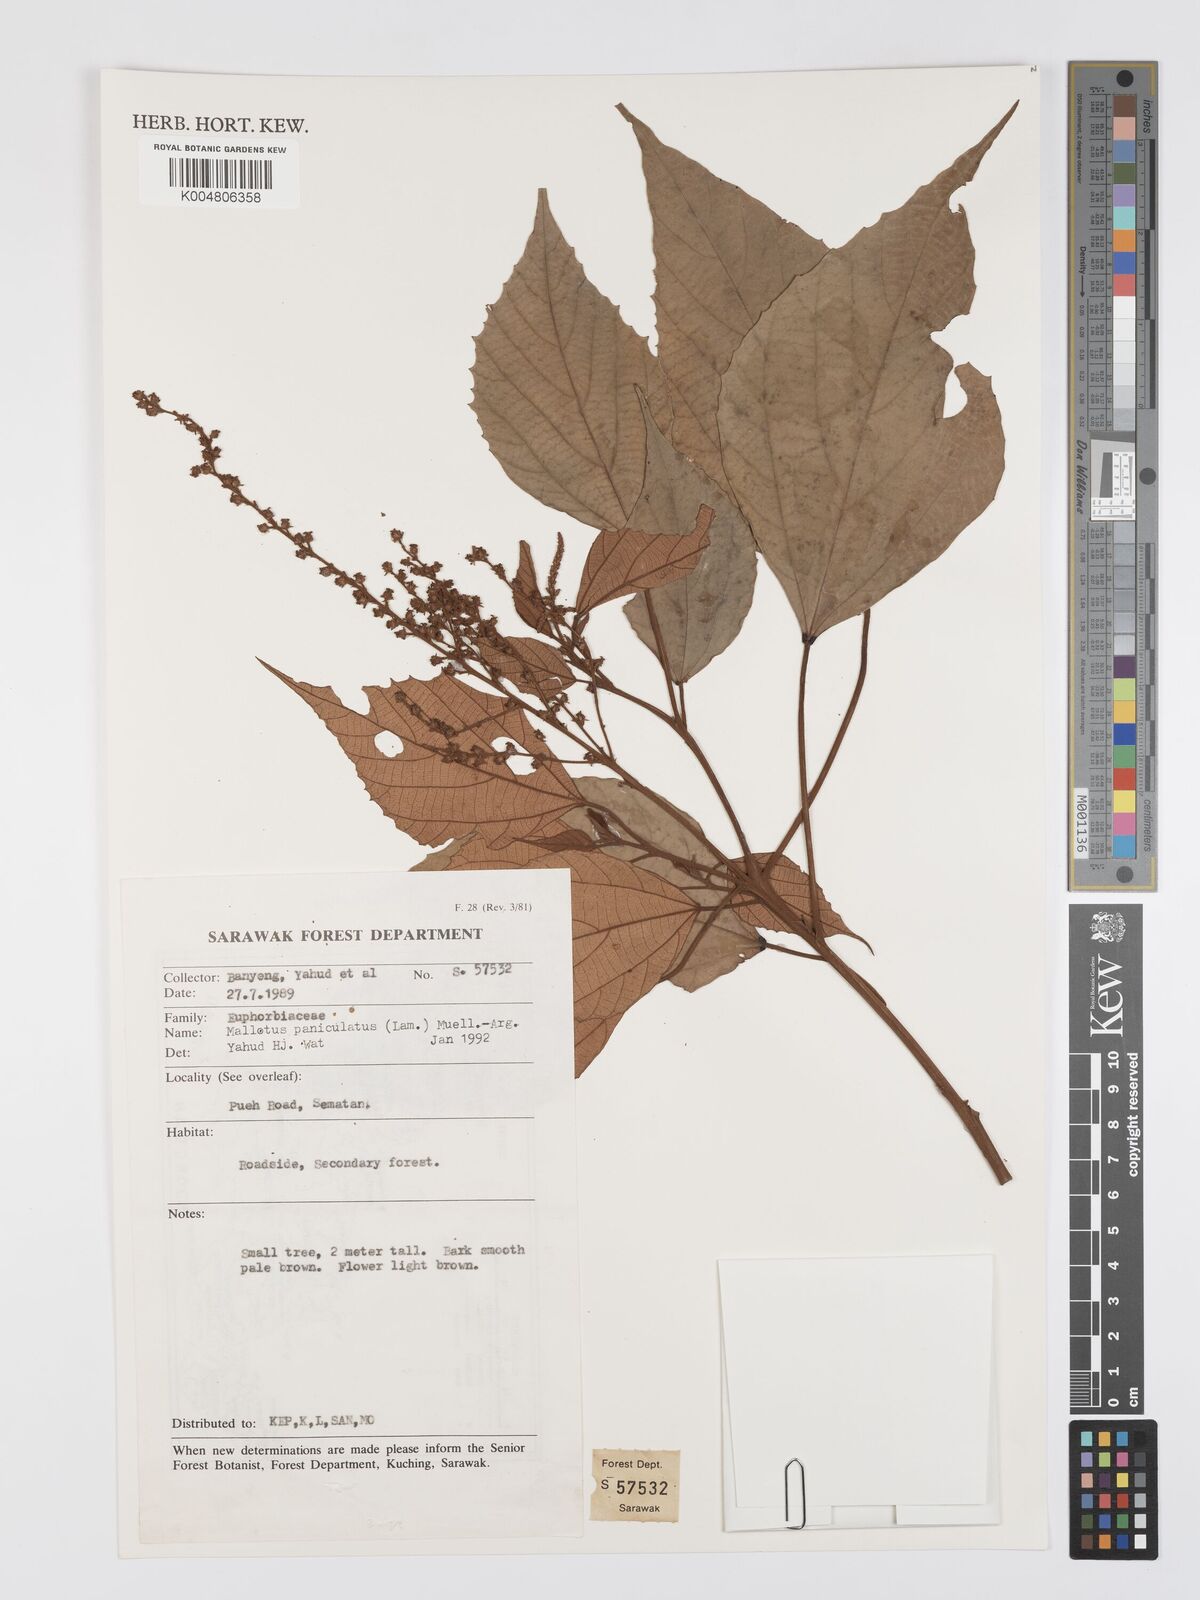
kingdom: Plantae
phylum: Tracheophyta
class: Magnoliopsida
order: Malpighiales
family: Euphorbiaceae
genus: Mallotus
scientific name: Mallotus paniculatus
